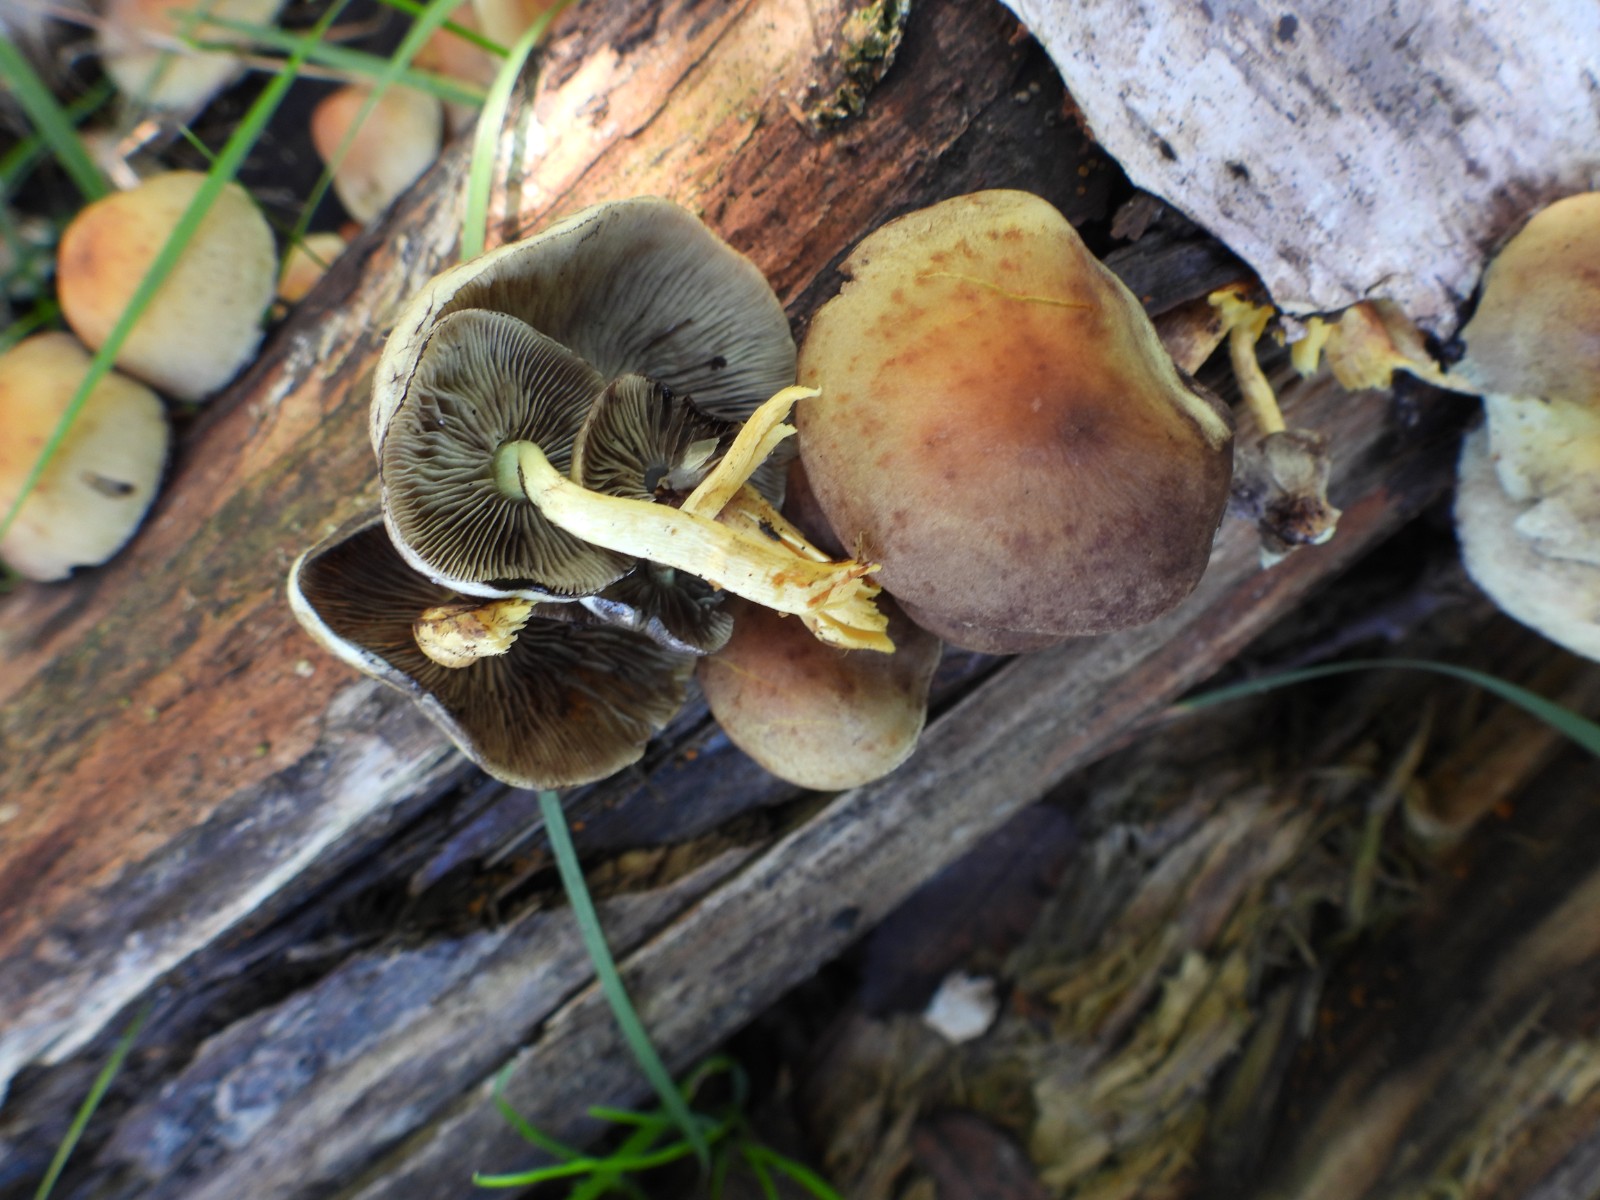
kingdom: Fungi
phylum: Basidiomycota
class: Agaricomycetes
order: Agaricales
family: Strophariaceae
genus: Hypholoma
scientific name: Hypholoma fasciculare
